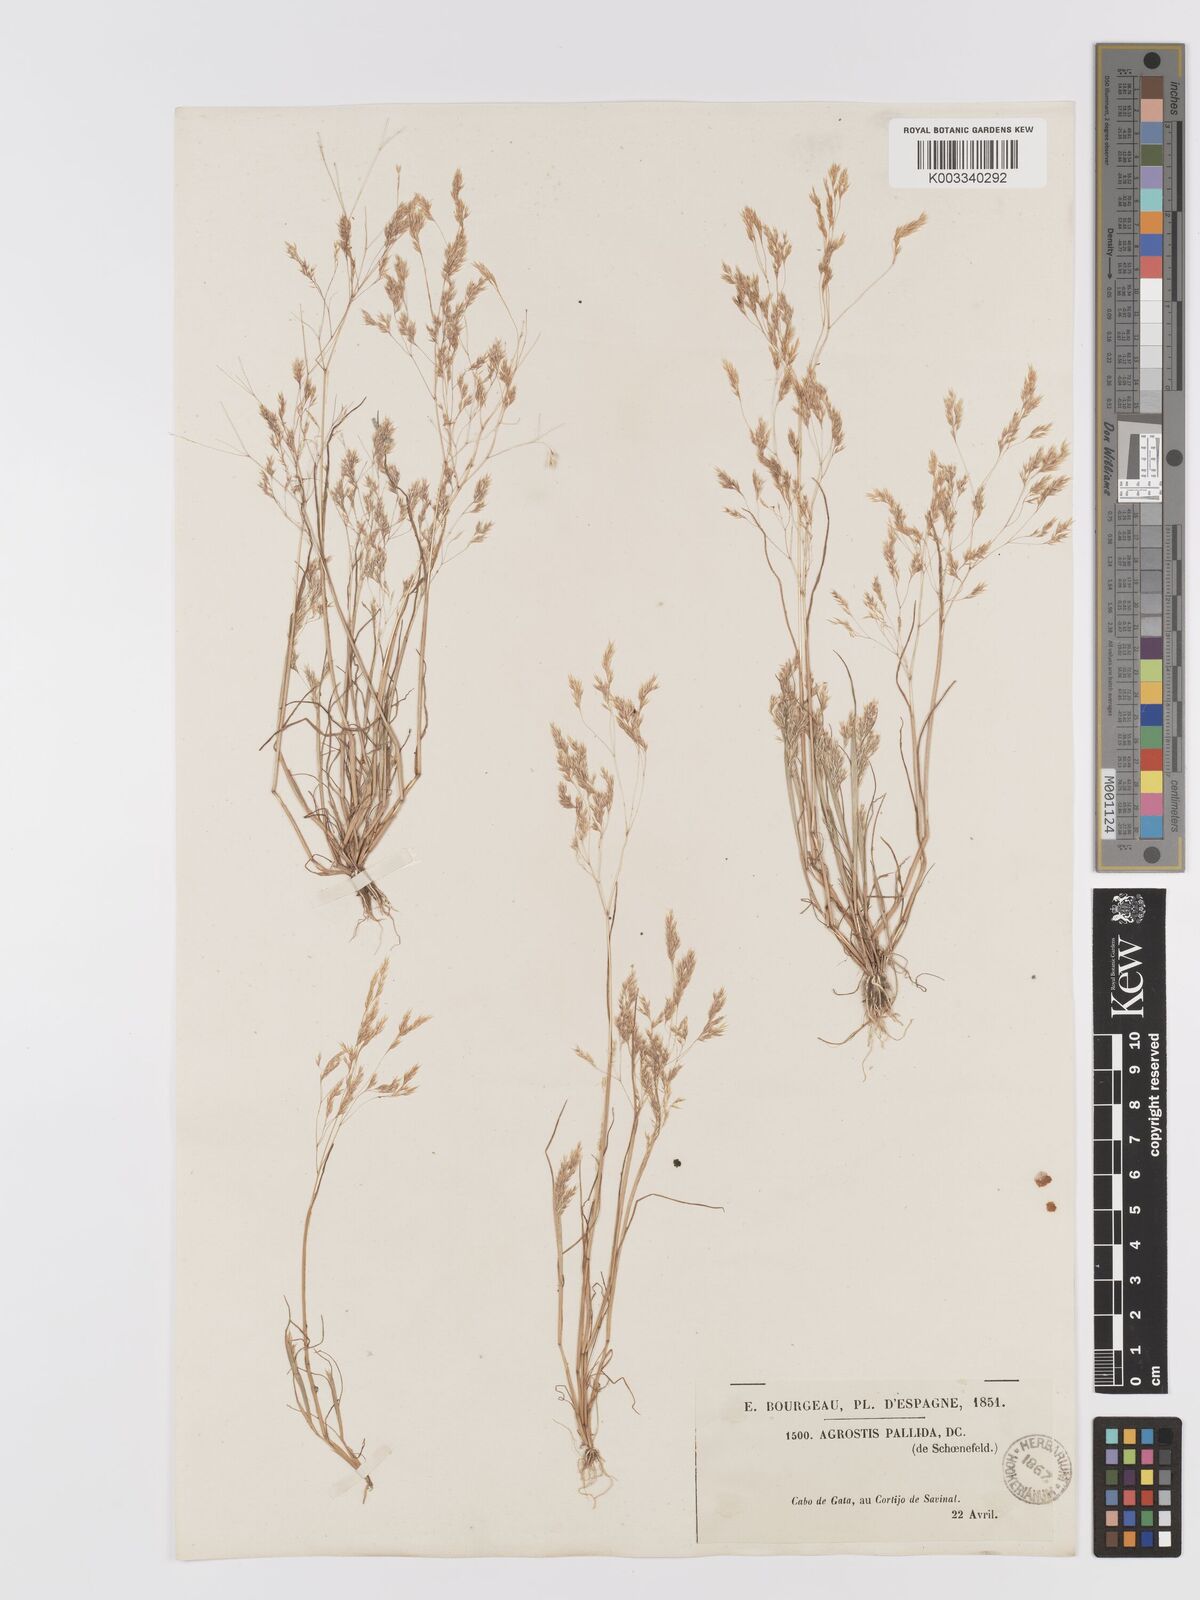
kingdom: Plantae
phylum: Tracheophyta
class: Liliopsida
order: Poales
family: Poaceae
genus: Agrostis
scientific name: Agrostis pourretii
